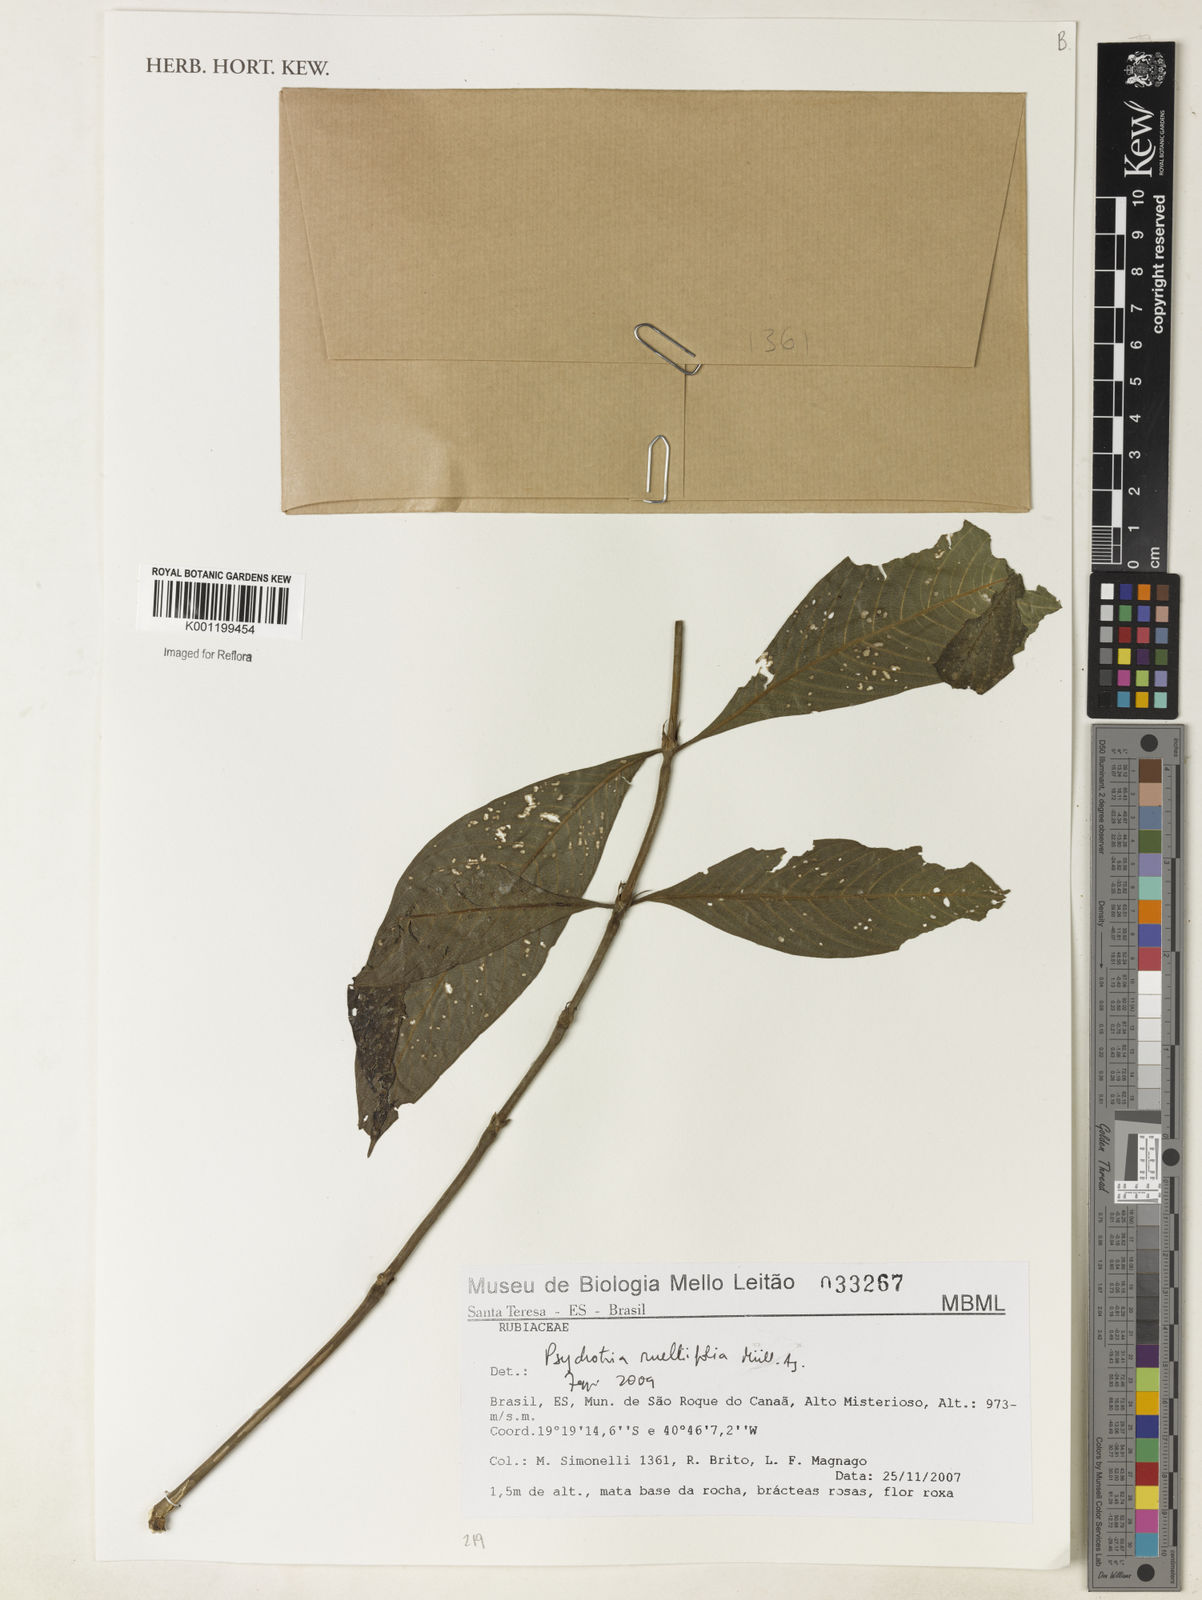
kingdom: Plantae
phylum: Tracheophyta
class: Magnoliopsida
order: Gentianales
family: Rubiaceae
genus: Psychotria
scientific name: Psychotria
